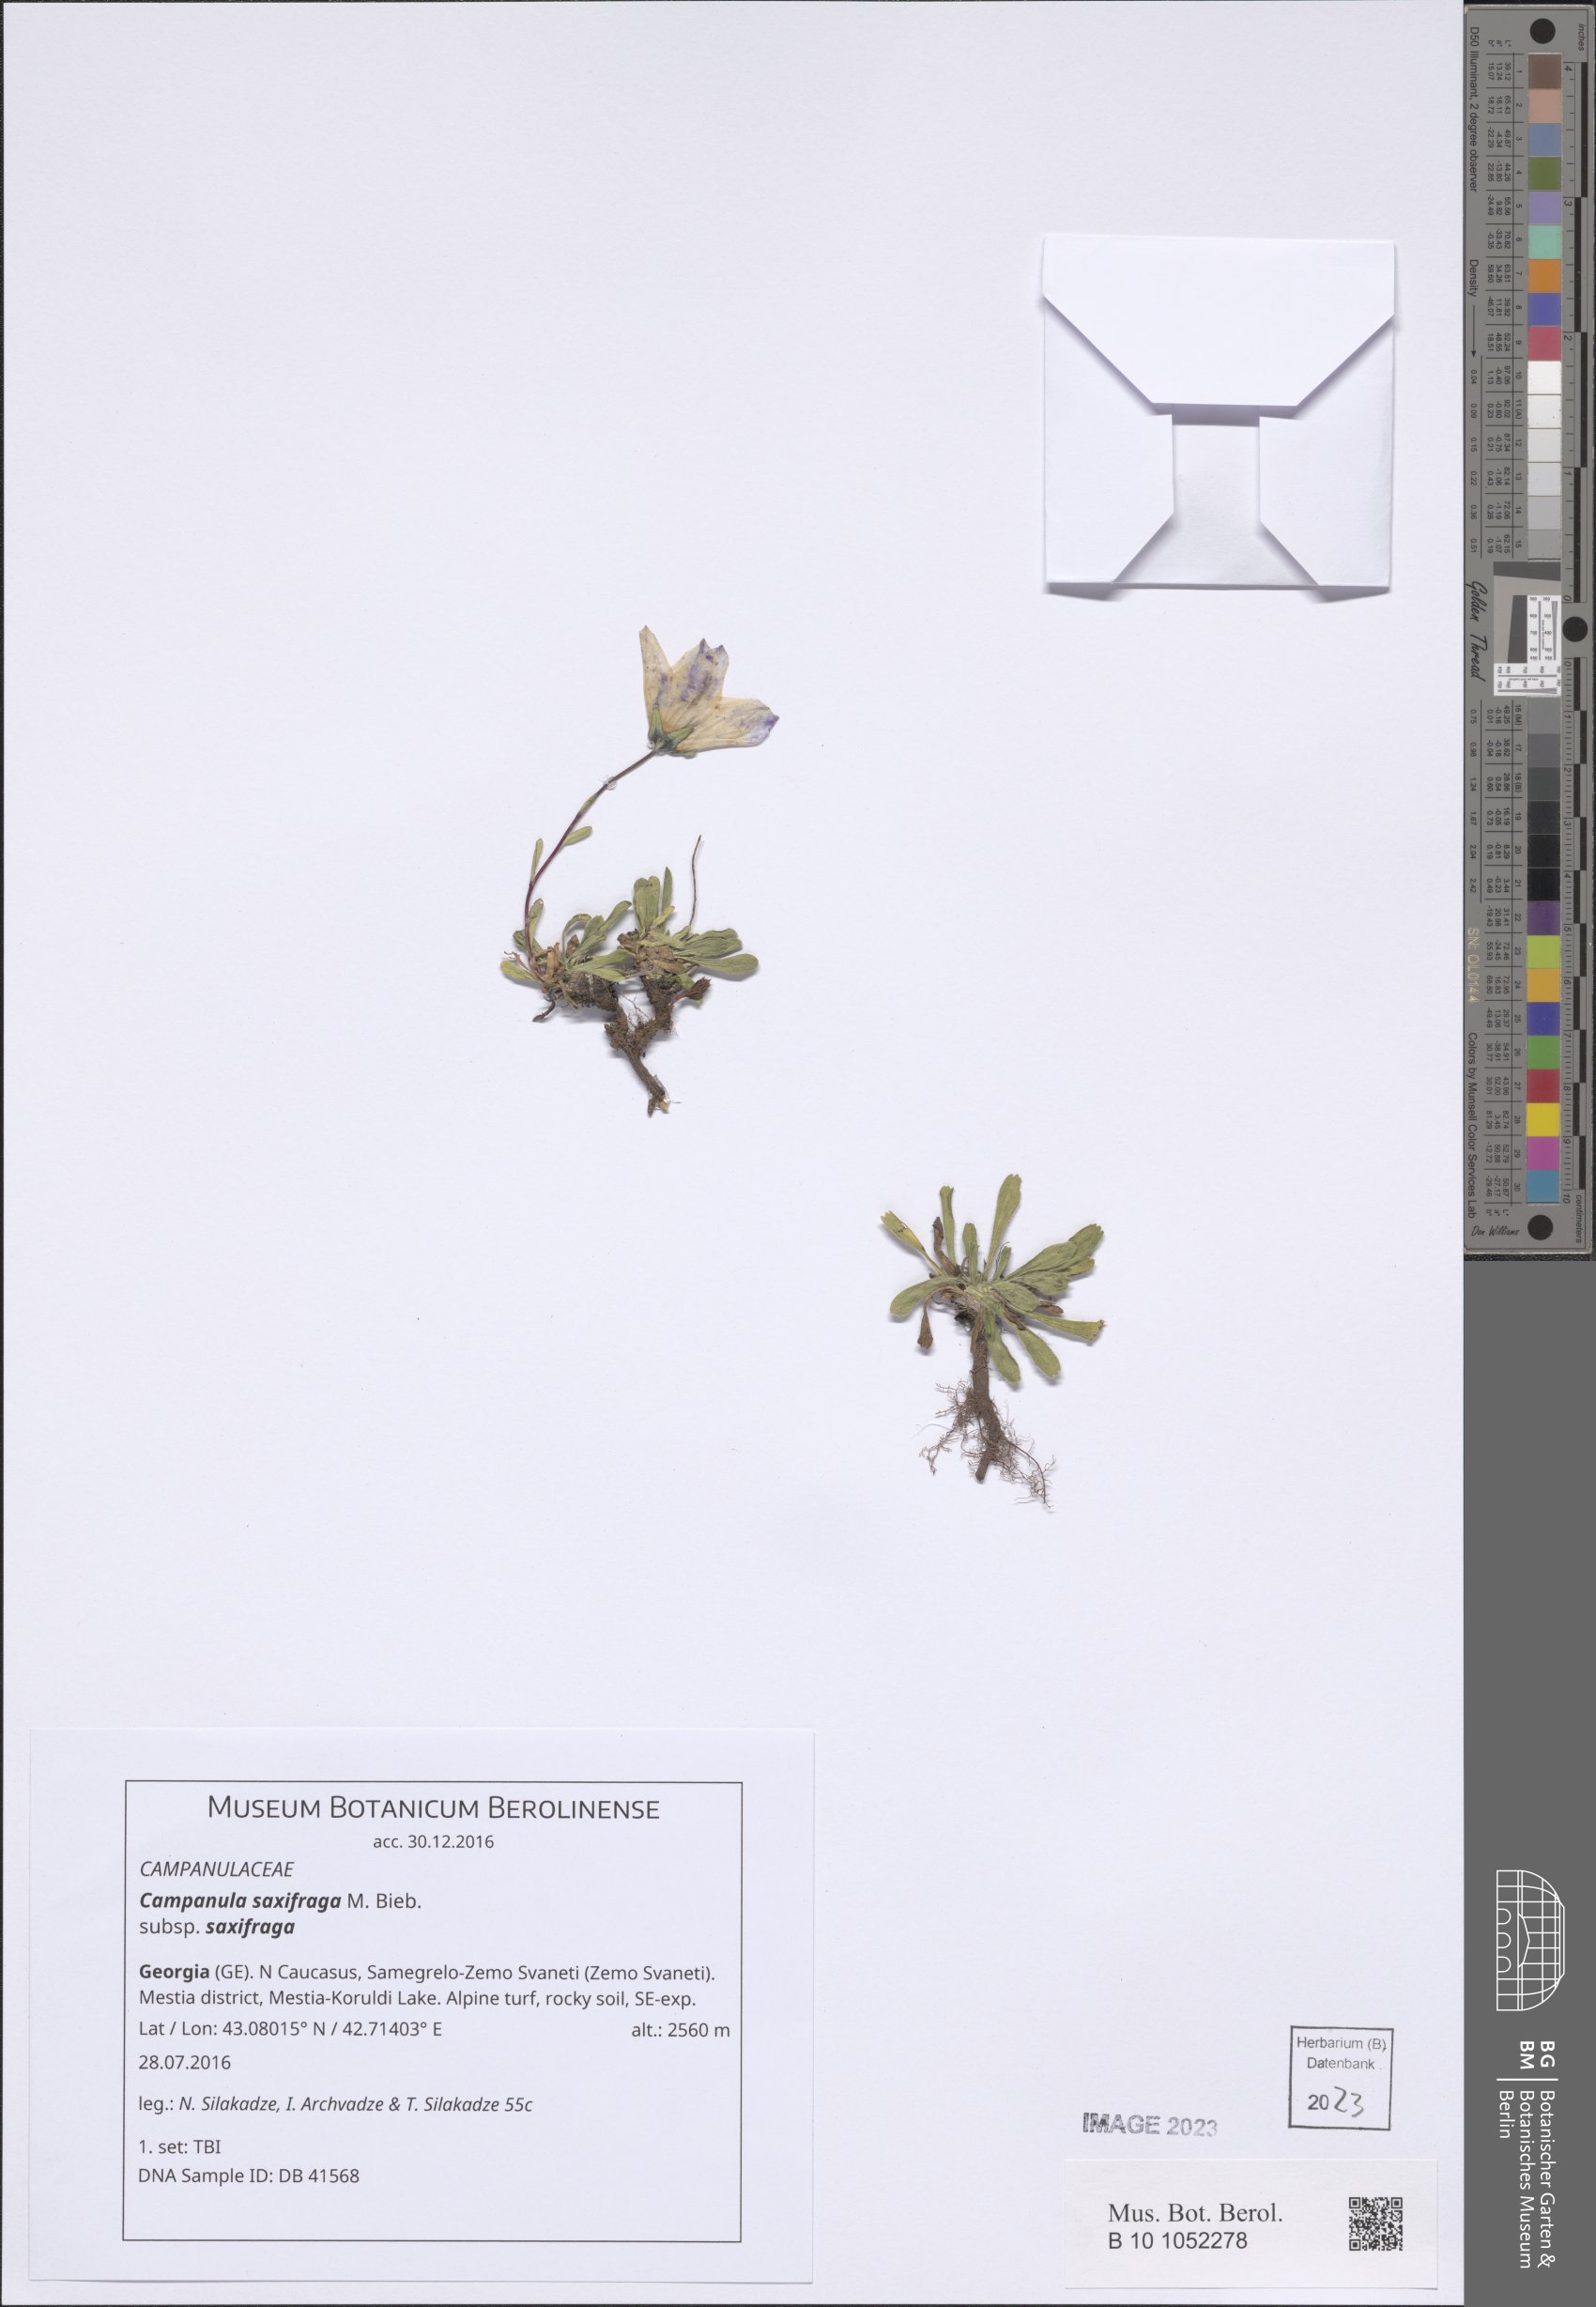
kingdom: Plantae
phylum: Tracheophyta
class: Magnoliopsida
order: Asterales
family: Campanulaceae
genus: Campanula
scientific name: Campanula saxifraga
